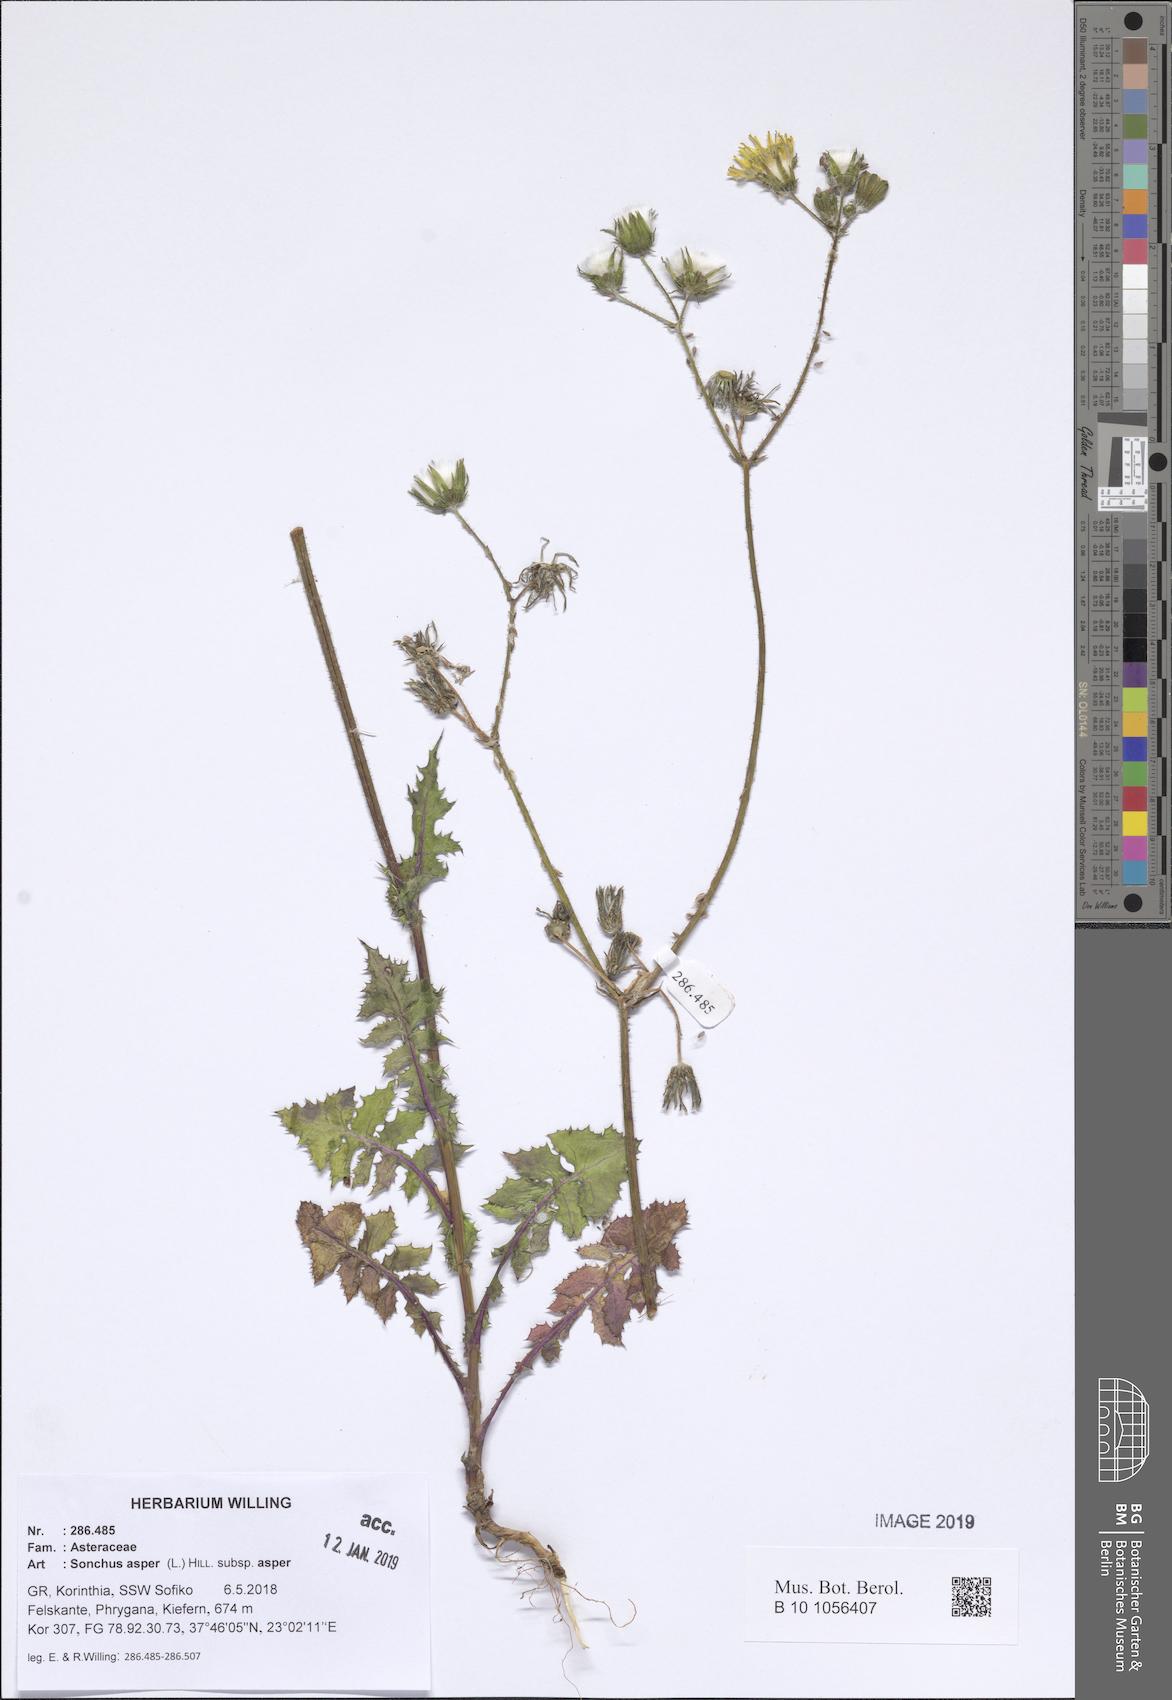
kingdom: Plantae
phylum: Tracheophyta
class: Magnoliopsida
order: Asterales
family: Asteraceae
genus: Sonchus
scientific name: Sonchus asper
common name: Prickly sow-thistle
